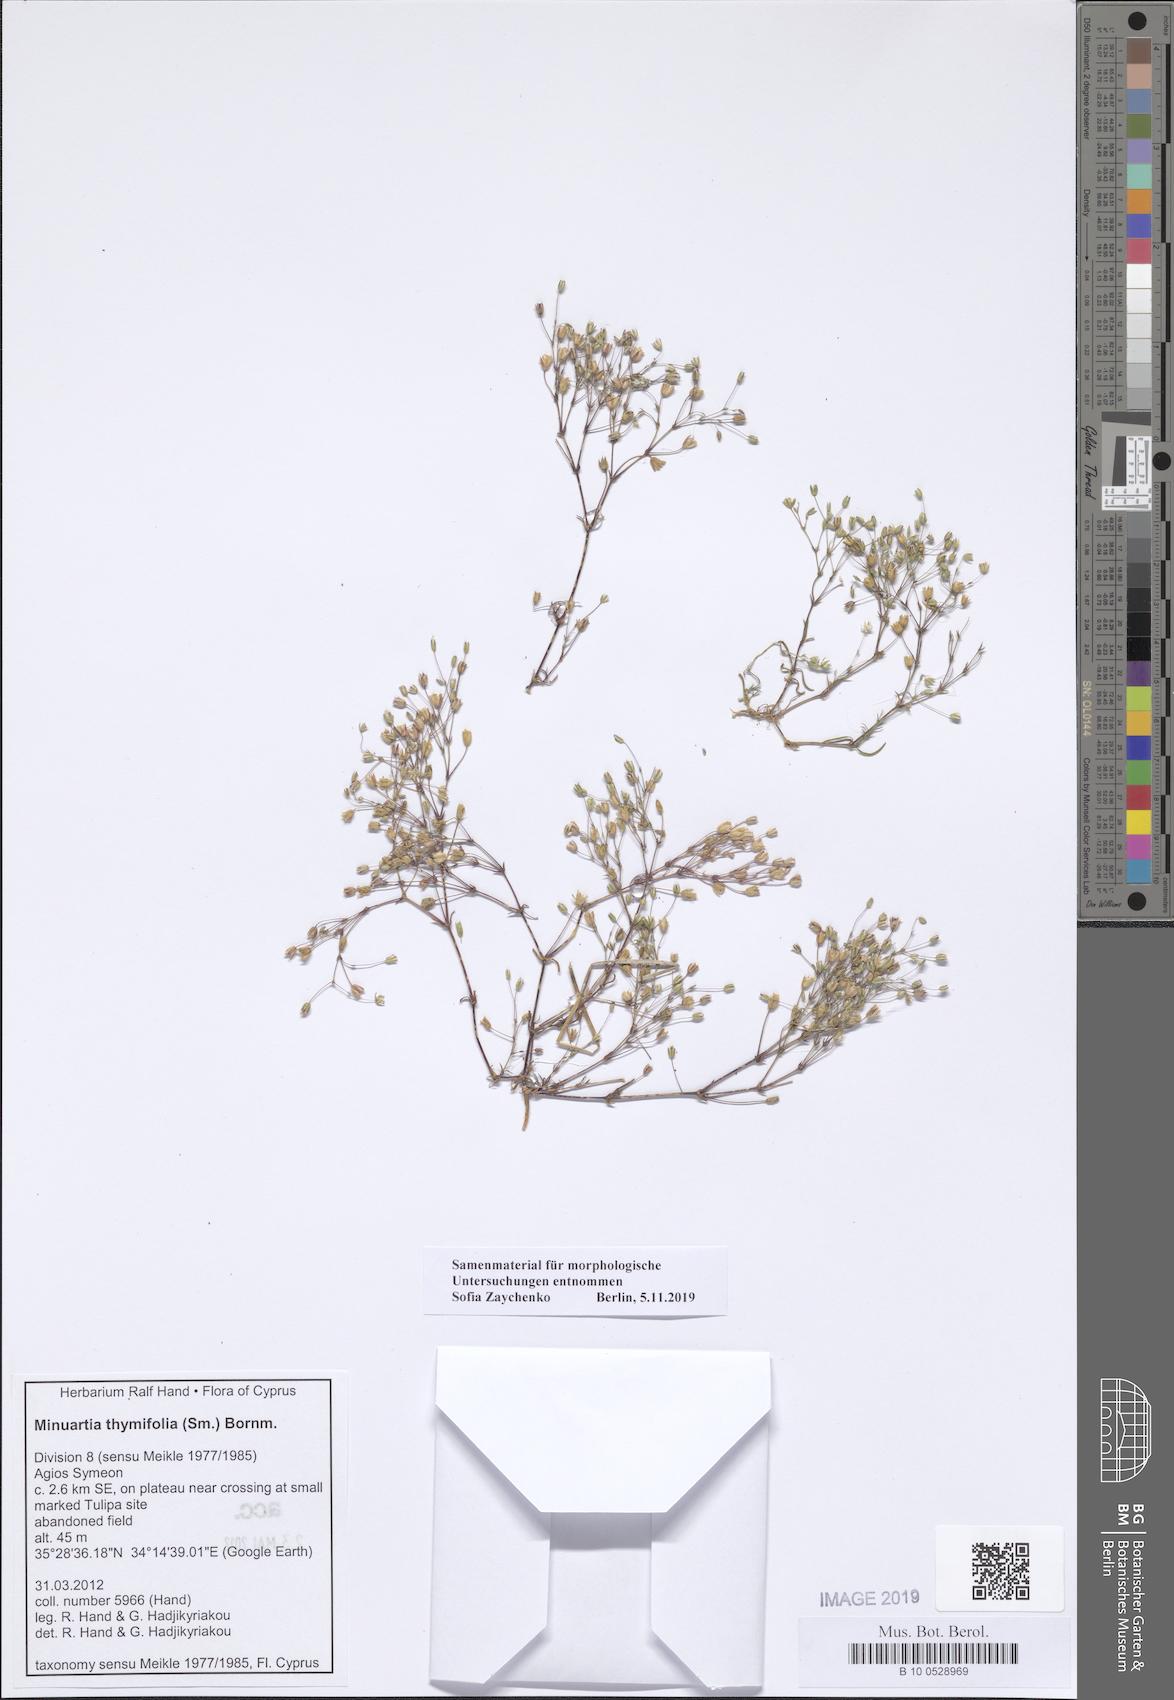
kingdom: Plantae
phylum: Tracheophyta
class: Magnoliopsida
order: Caryophyllales
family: Caryophyllaceae
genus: Sabulina
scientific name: Sabulina thymifolia
